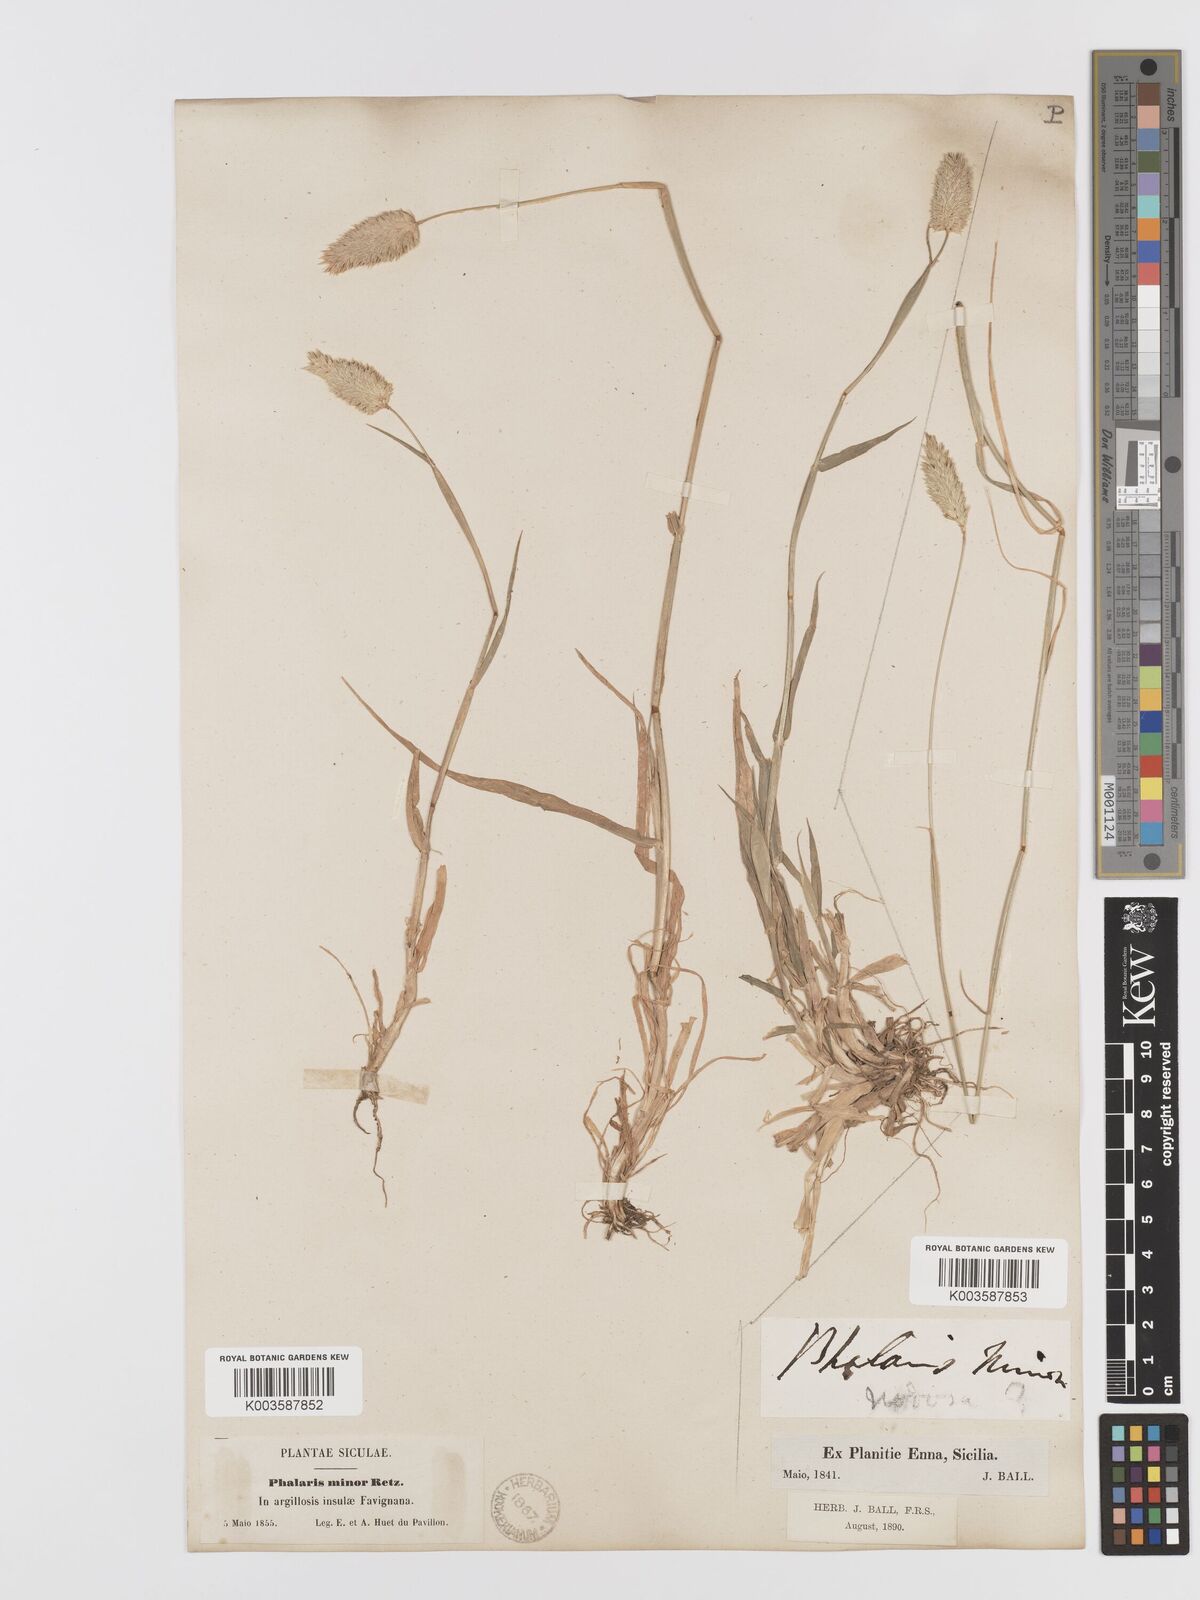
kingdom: Plantae
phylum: Tracheophyta
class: Liliopsida
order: Poales
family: Poaceae
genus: Phalaris
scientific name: Phalaris minor
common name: Littleseed canarygrass
